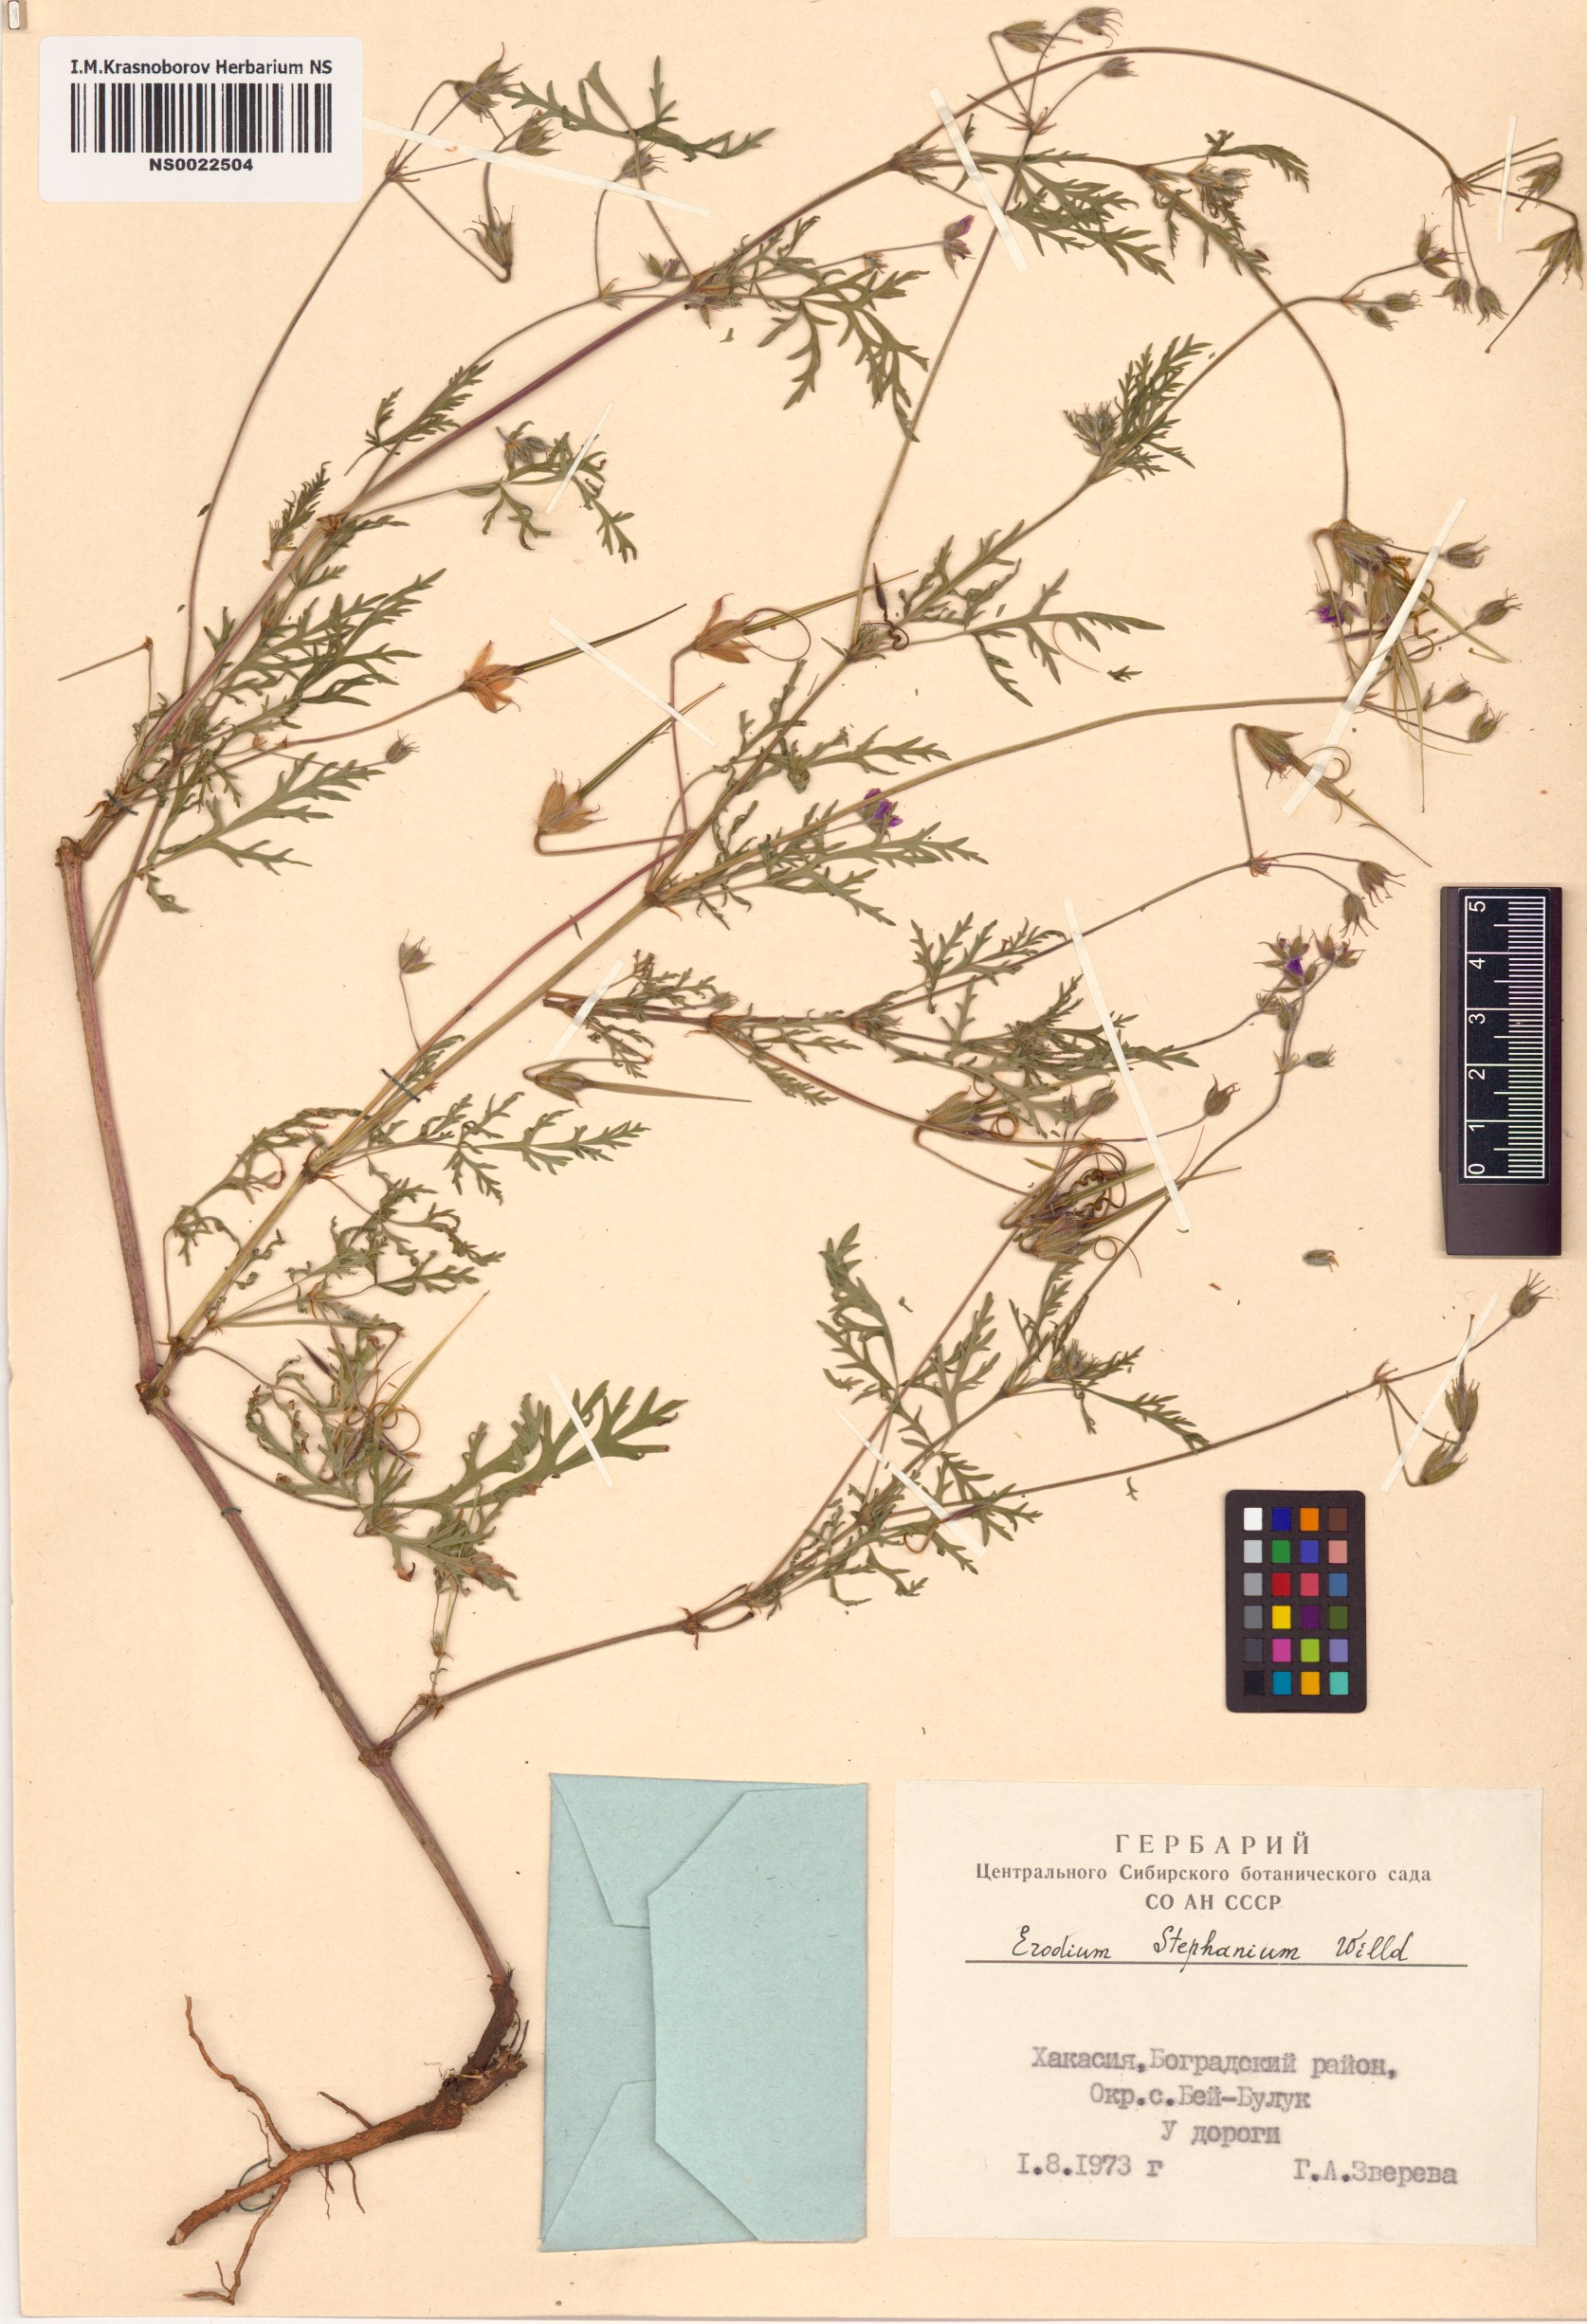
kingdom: Plantae
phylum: Tracheophyta
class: Magnoliopsida
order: Geraniales
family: Geraniaceae
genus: Erodium
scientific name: Erodium stephanianum
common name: Stephen's stork's bill
